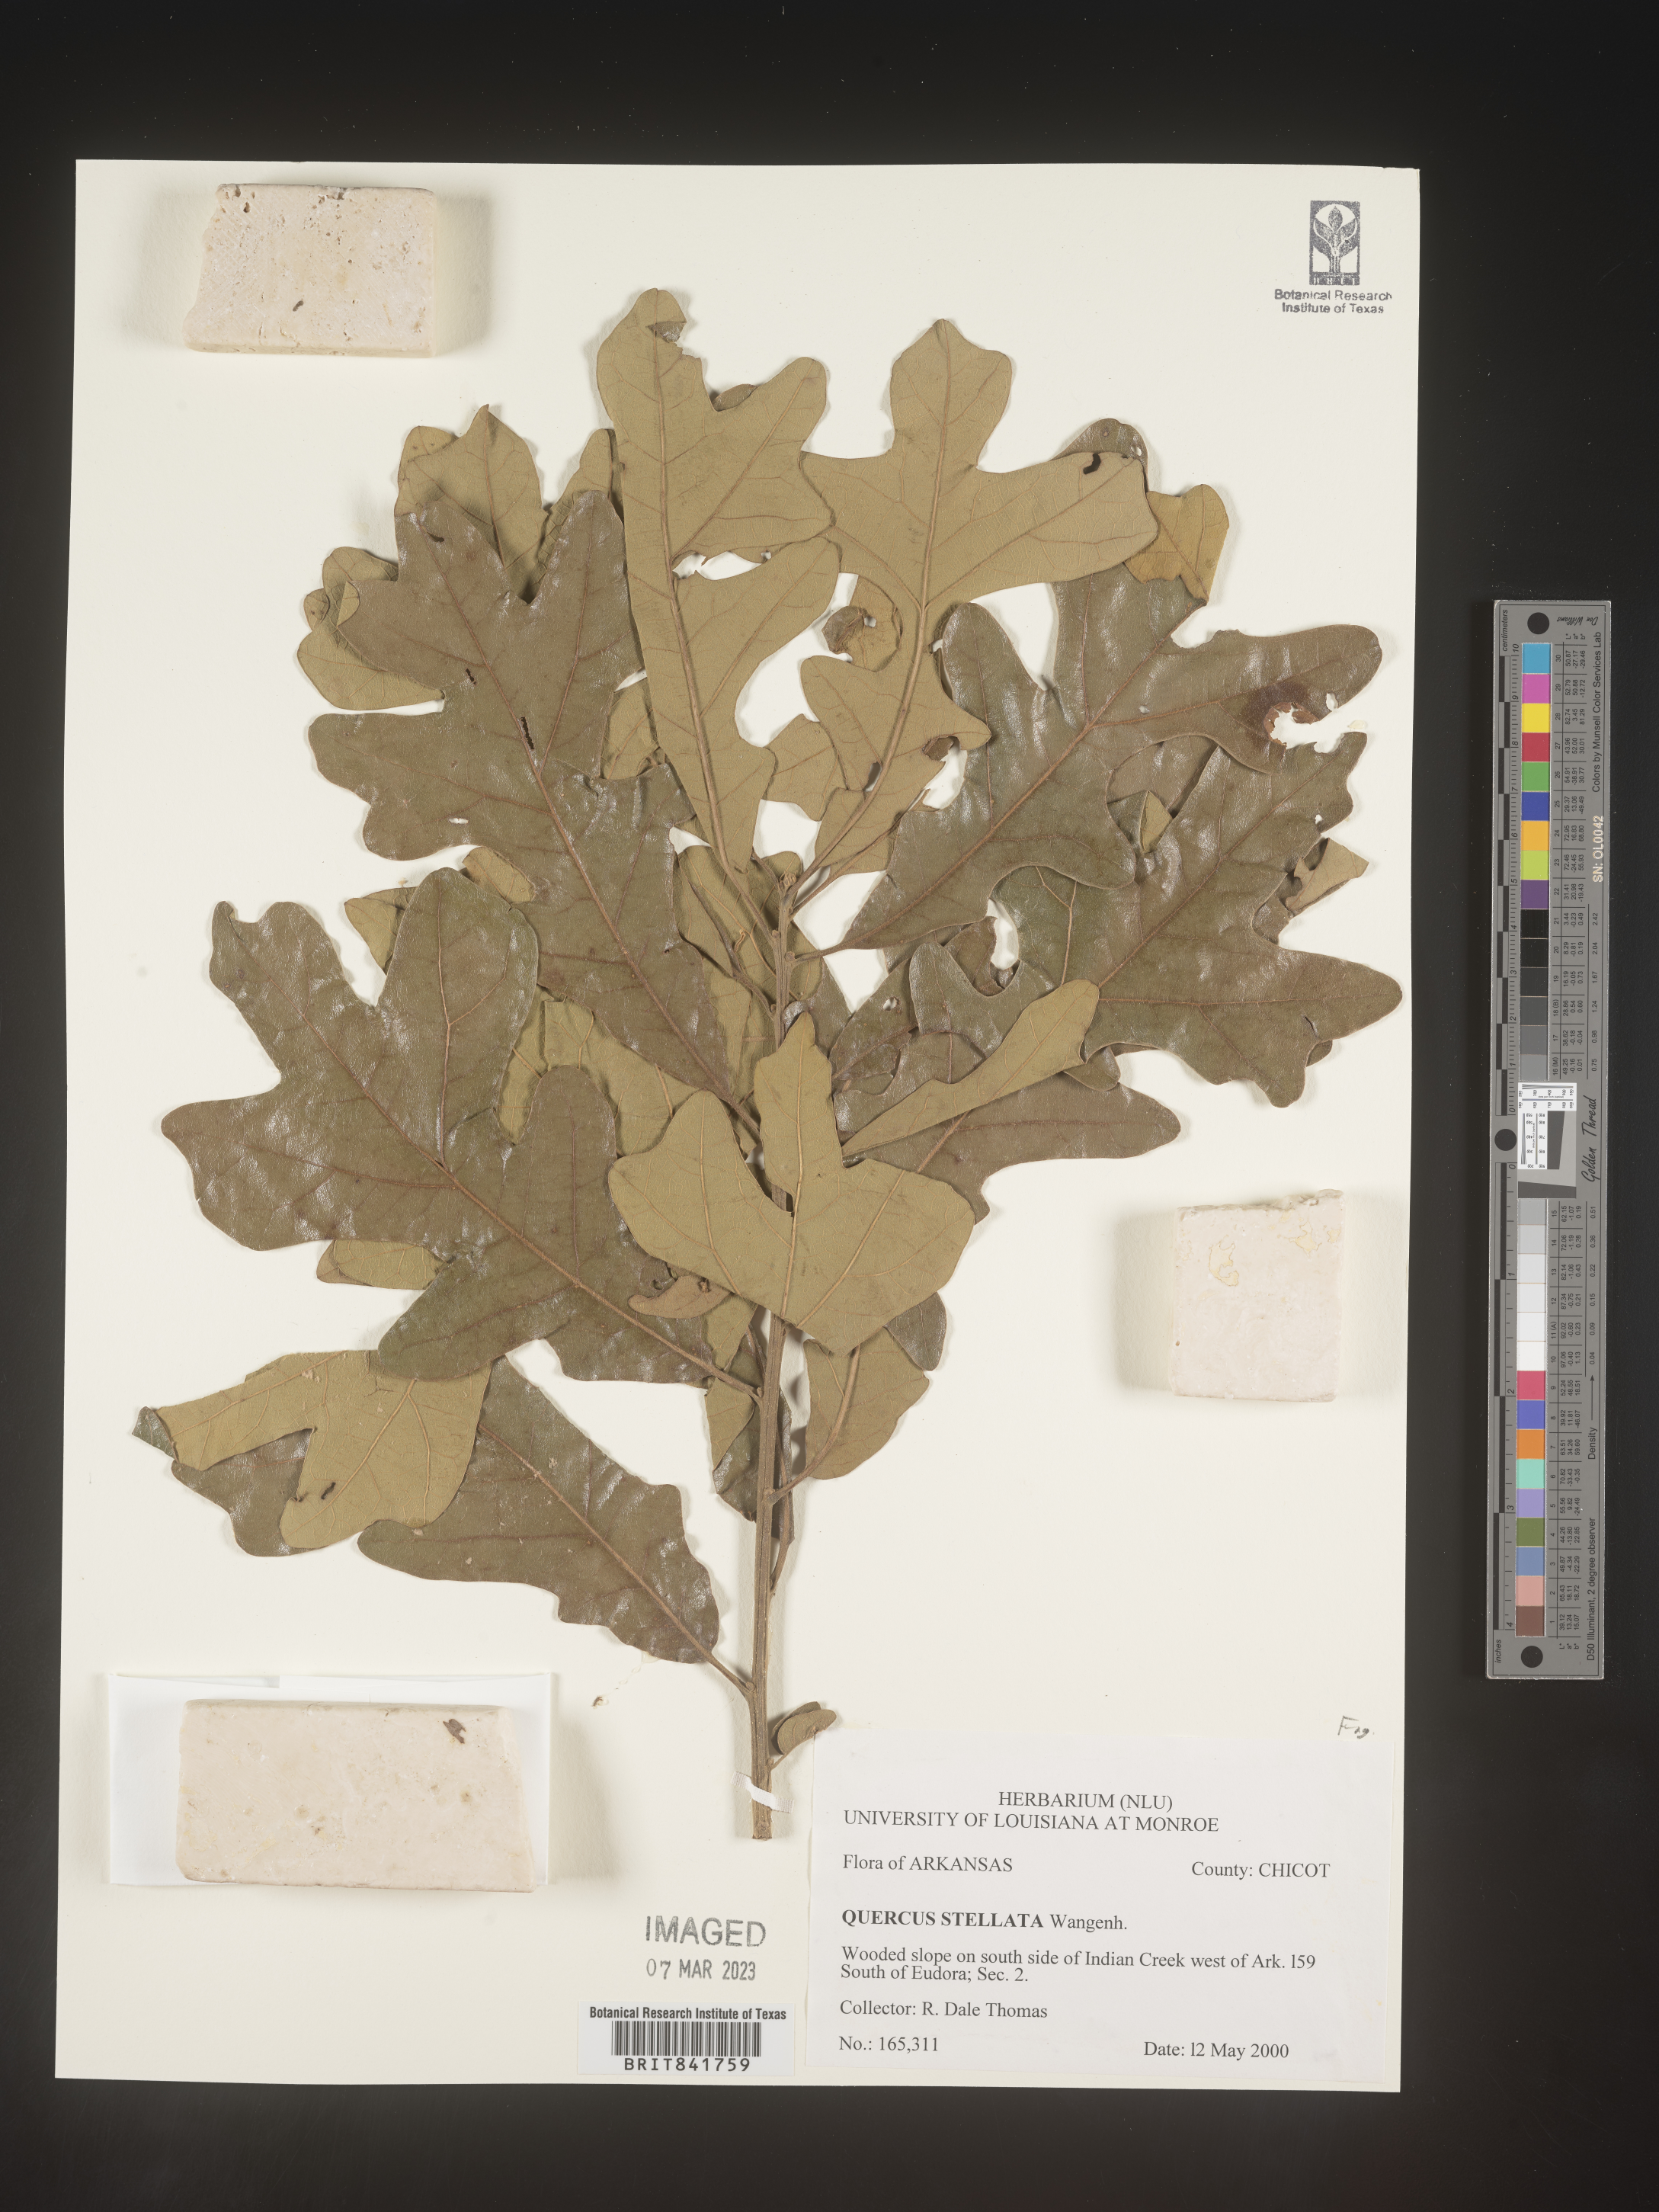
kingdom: Plantae
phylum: Tracheophyta
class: Magnoliopsida
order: Fagales
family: Fagaceae
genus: Quercus
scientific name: Quercus stellata
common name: Post oak
